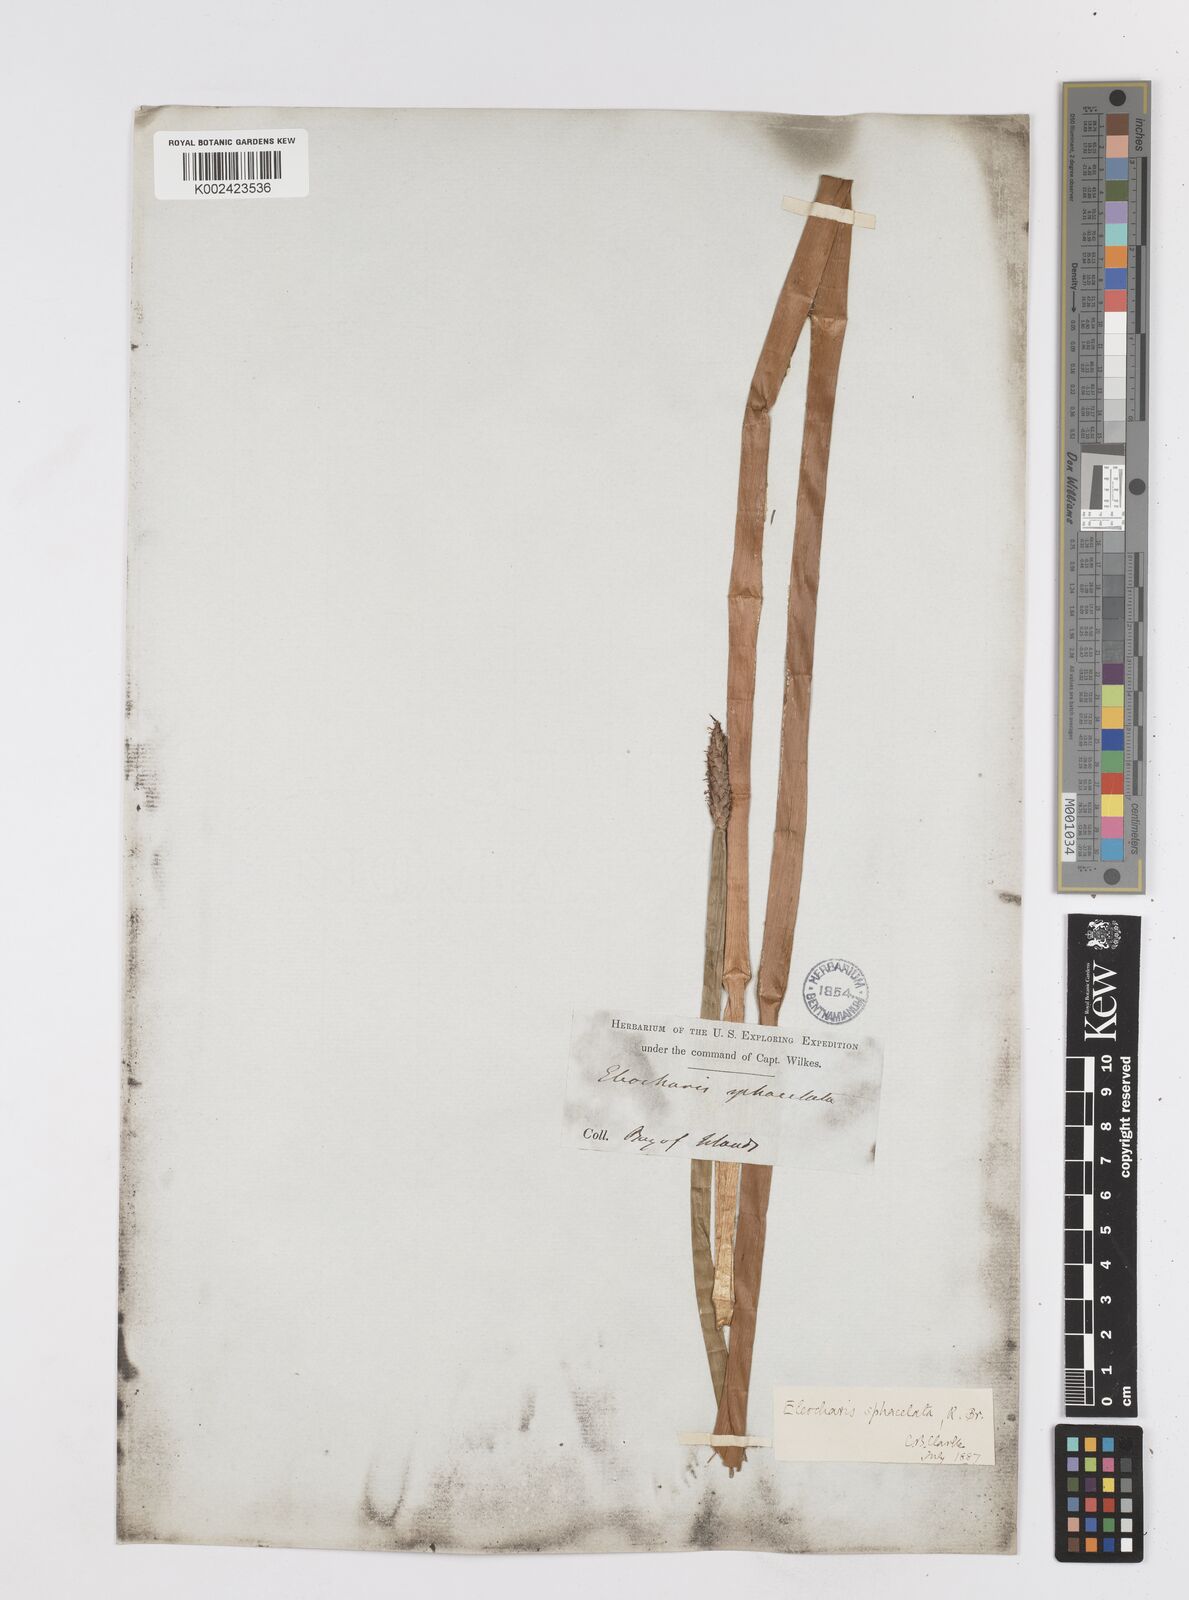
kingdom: Plantae
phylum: Tracheophyta
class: Liliopsida
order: Poales
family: Cyperaceae
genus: Eleocharis
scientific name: Eleocharis sphacelata
